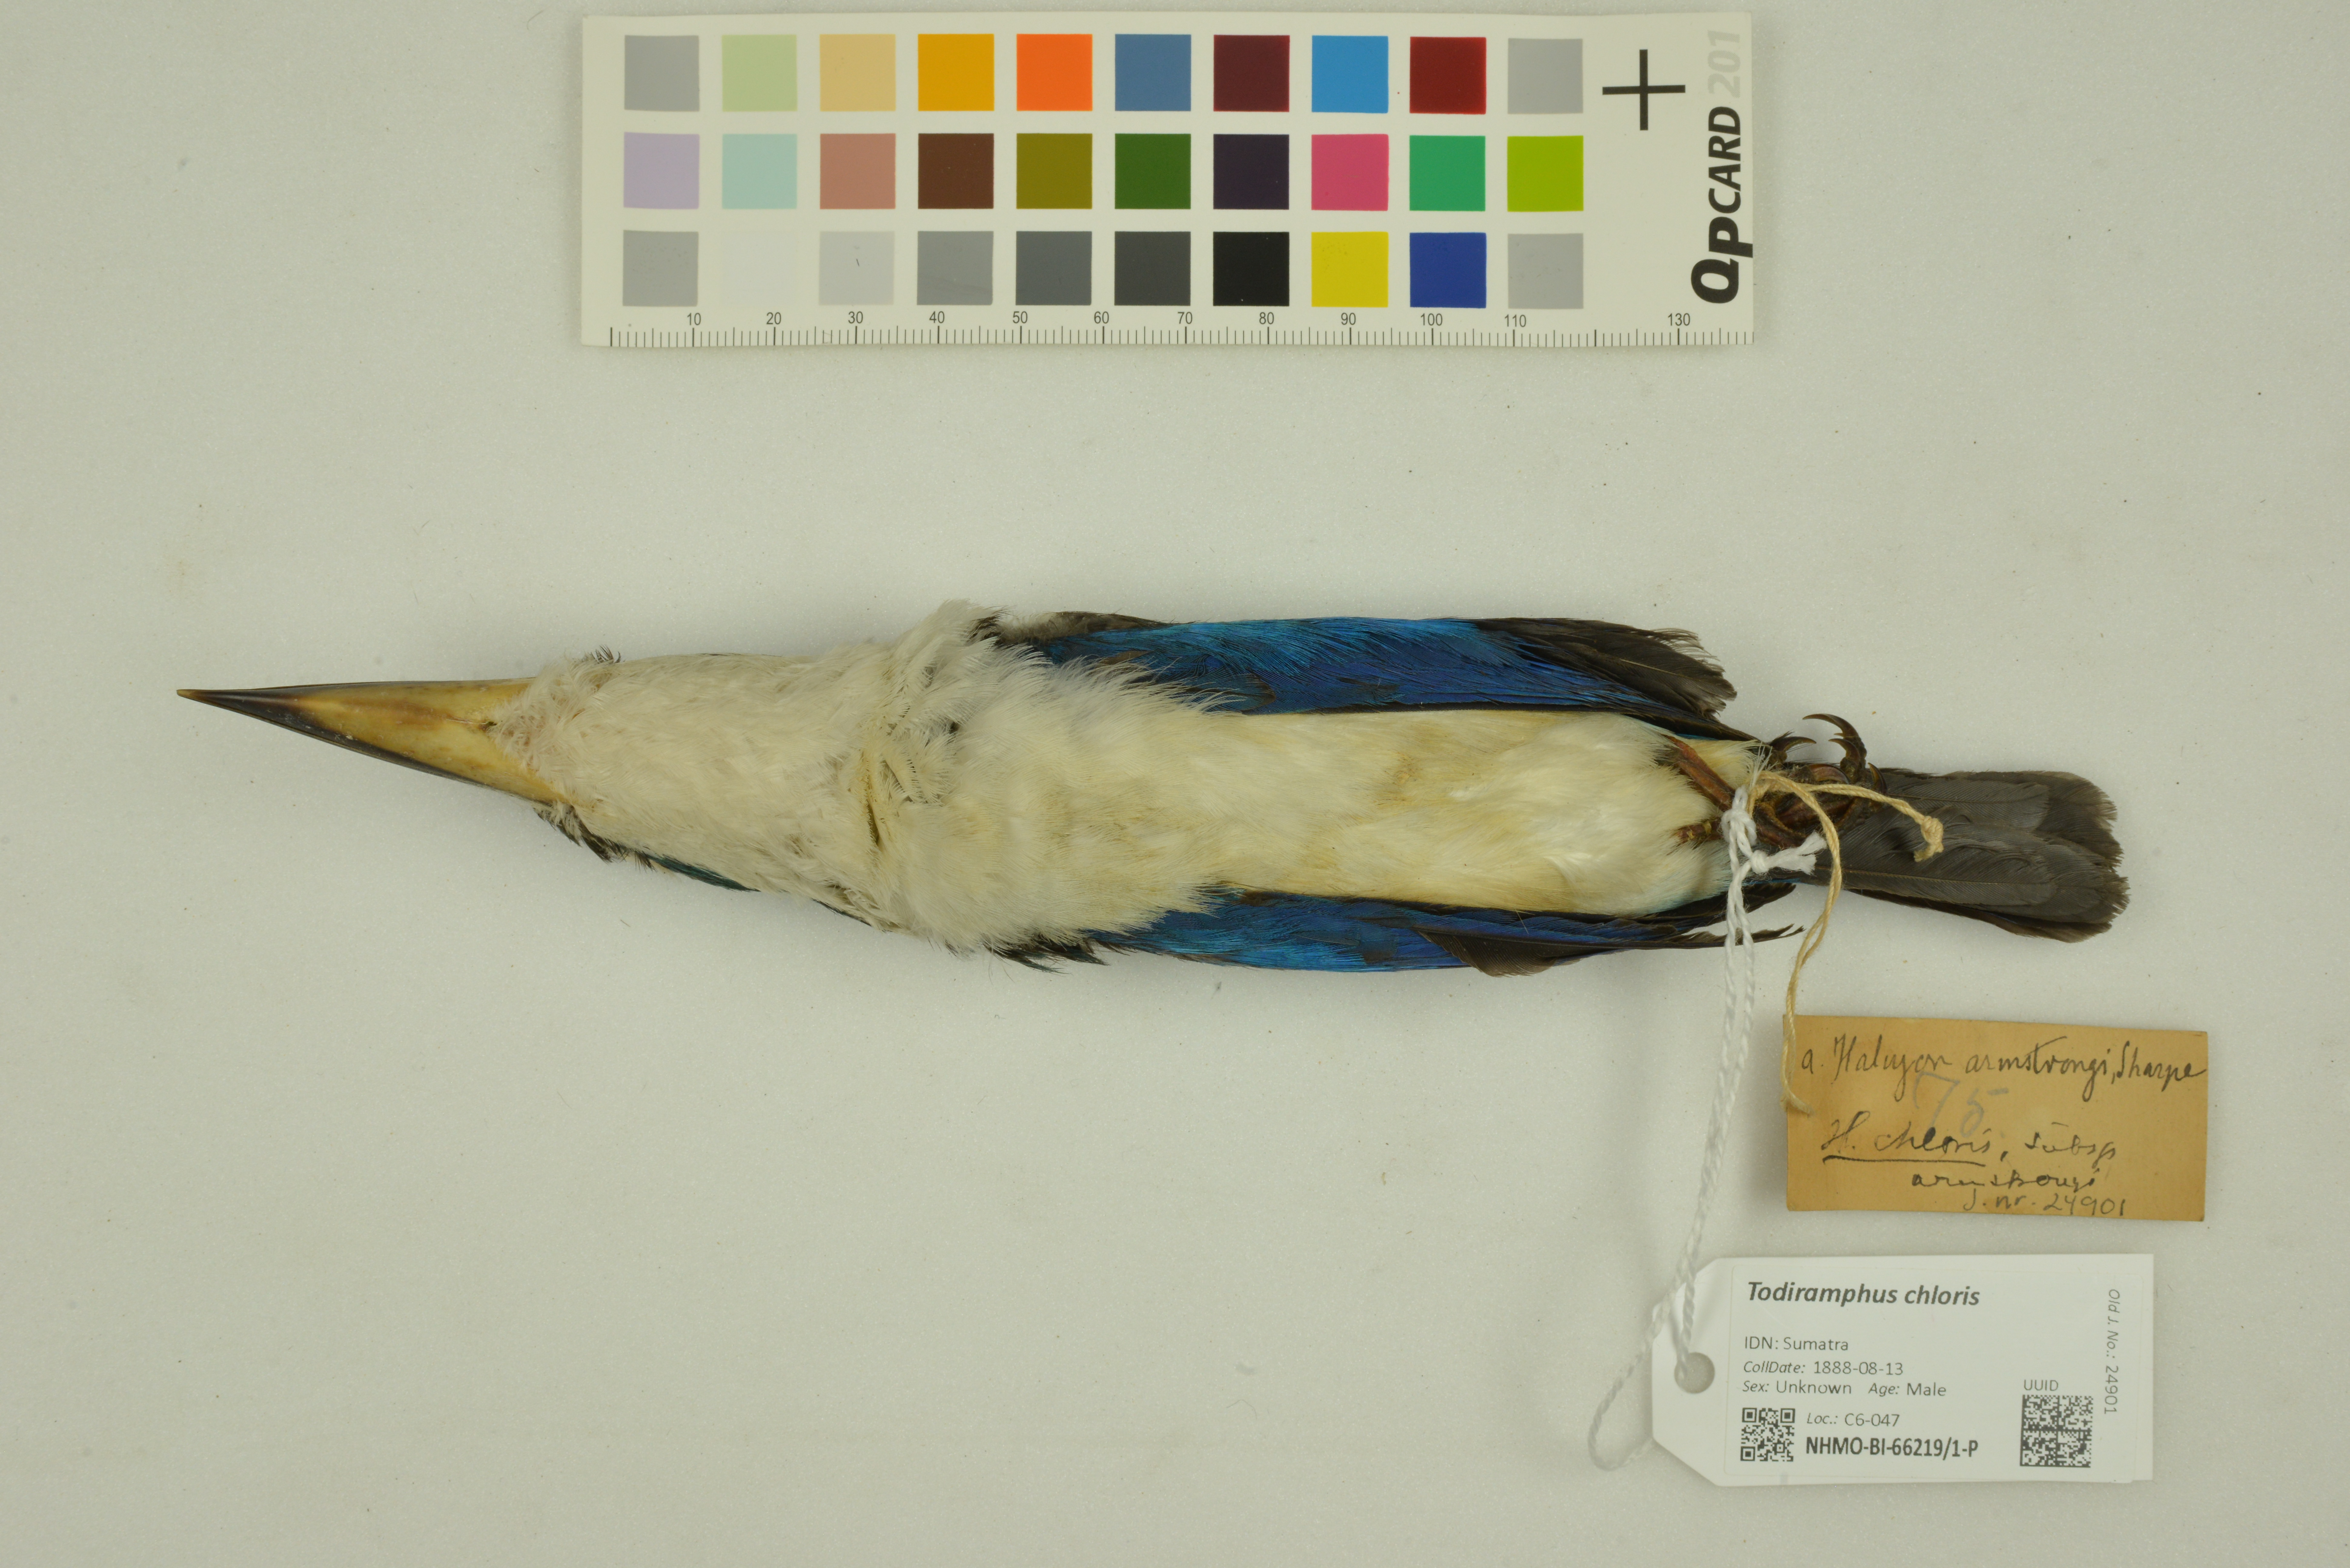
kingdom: Animalia
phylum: Chordata
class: Aves
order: Coraciiformes
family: Alcedinidae
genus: Todiramphus
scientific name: Todiramphus chloris
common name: Collared kingfisher
